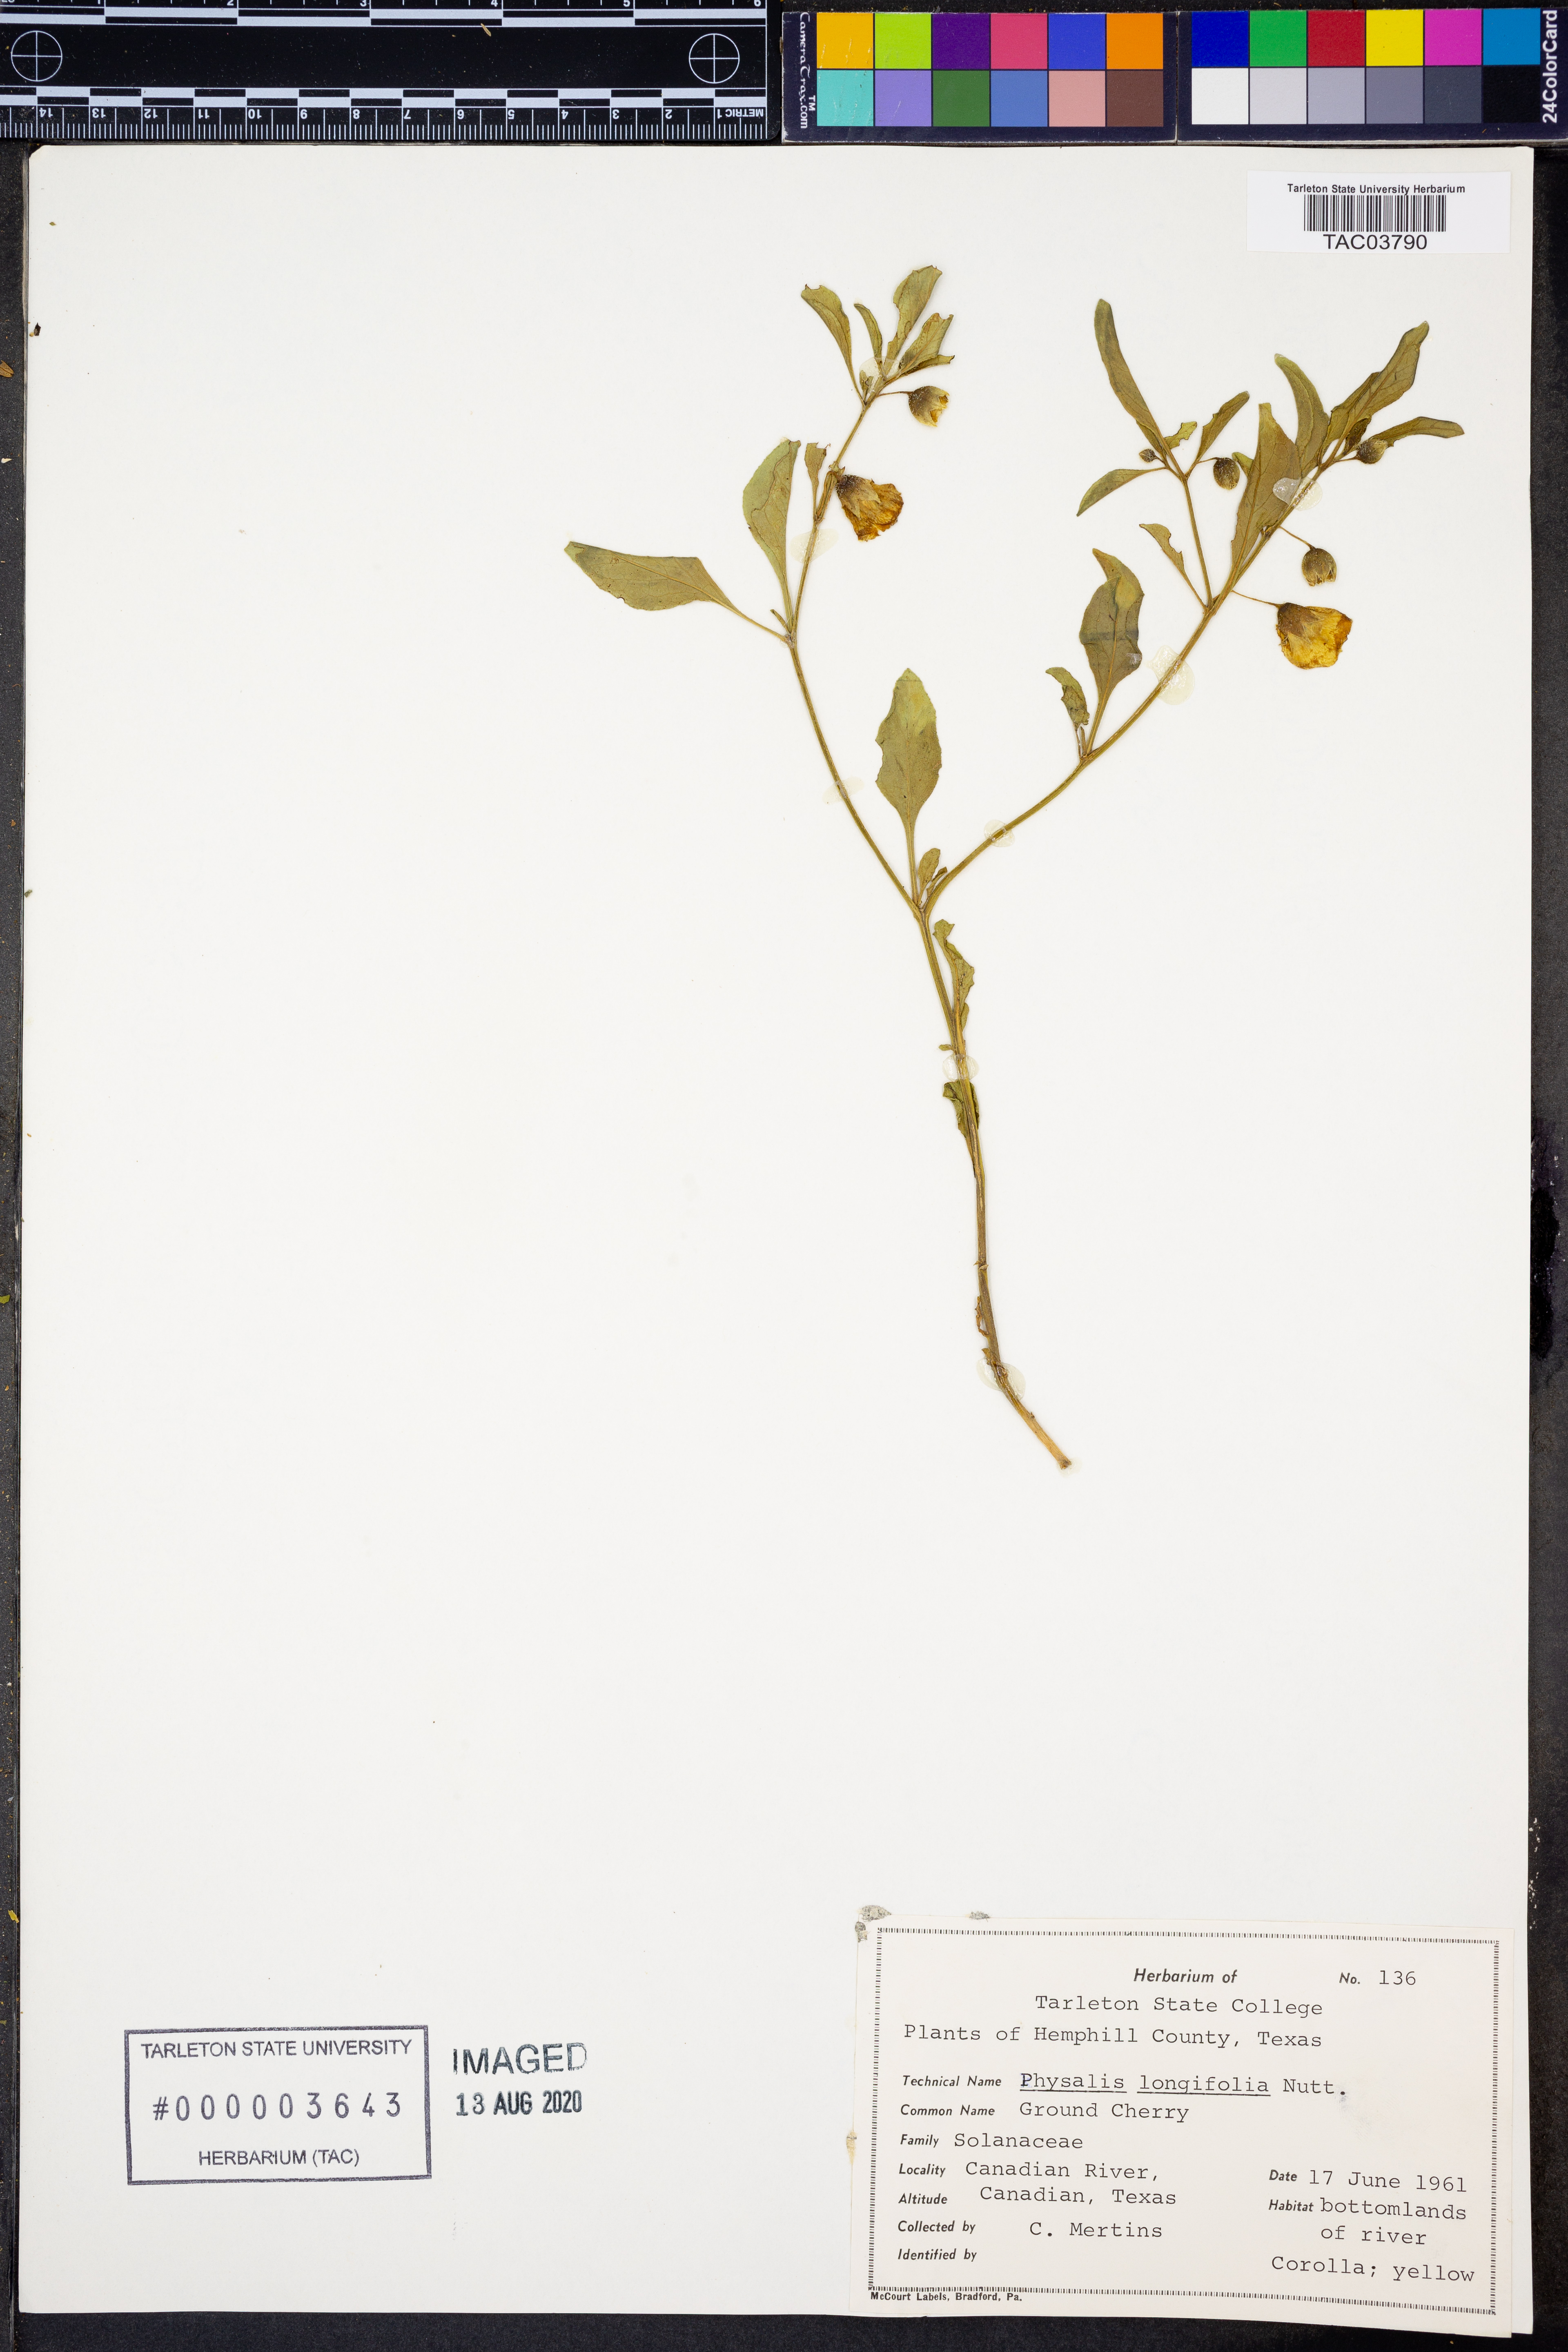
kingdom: Plantae
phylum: Tracheophyta
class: Magnoliopsida
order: Solanales
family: Solanaceae
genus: Physalis
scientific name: Physalis longifolia
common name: Common ground-cherry
